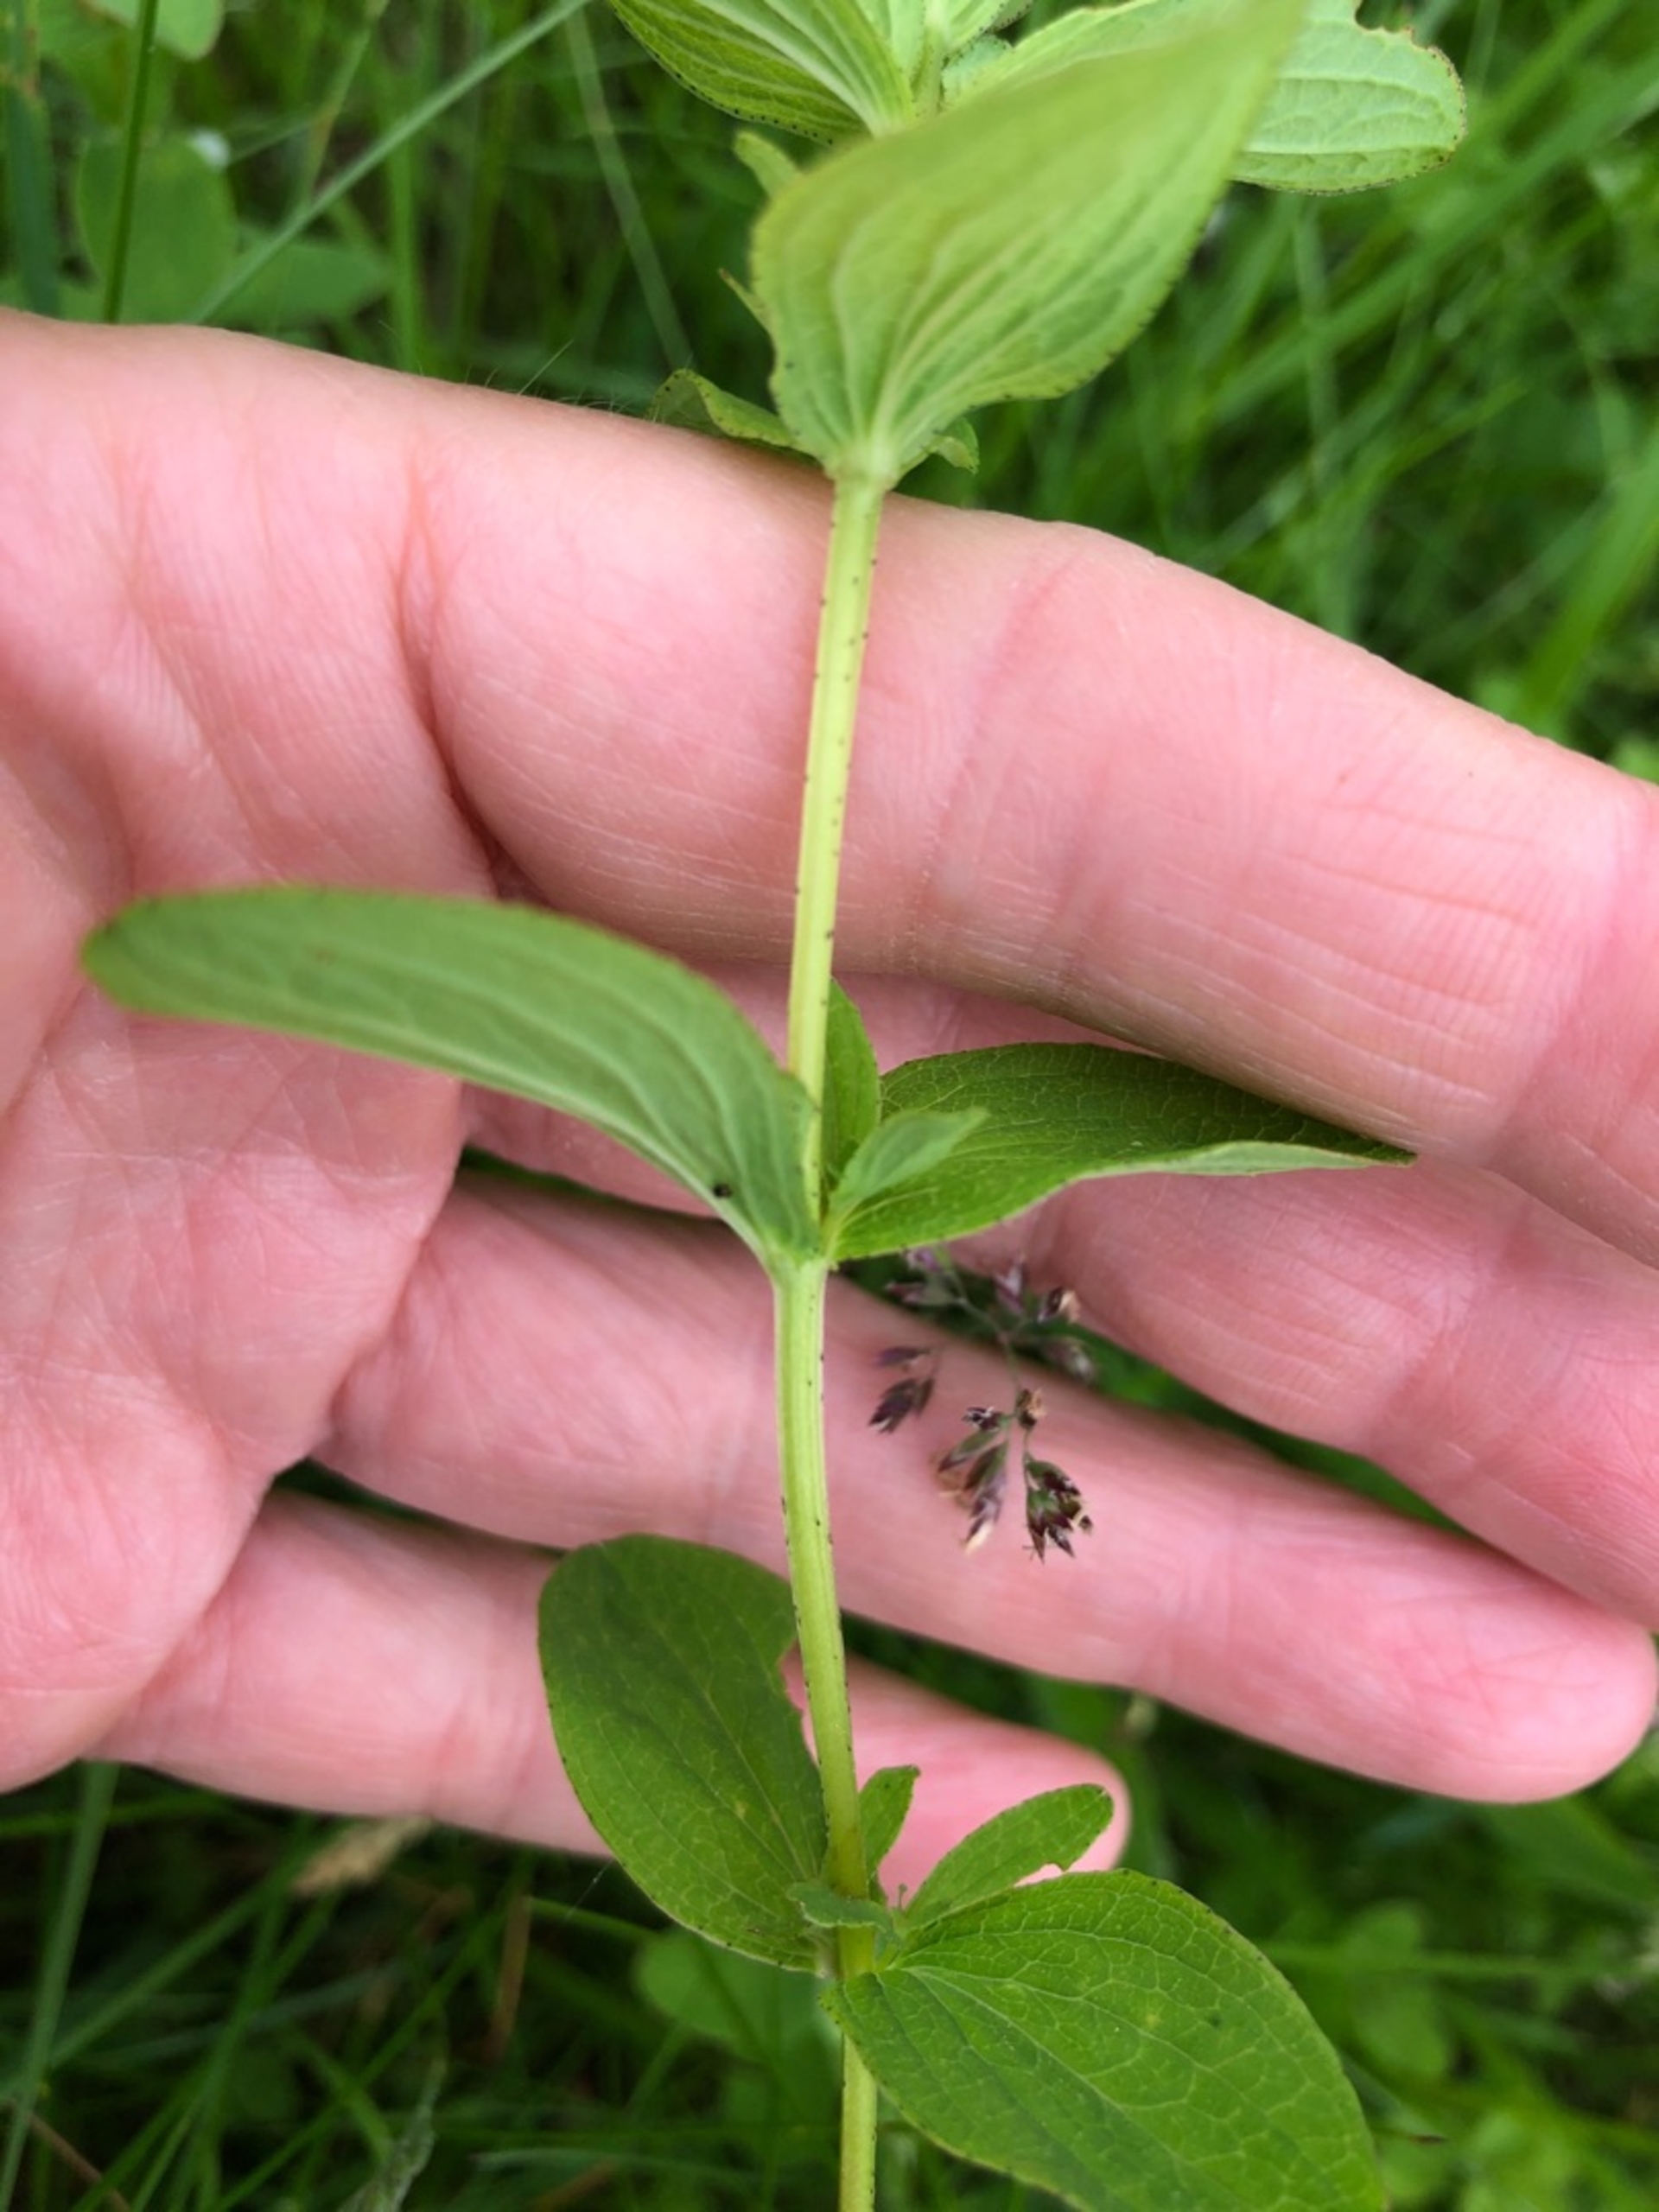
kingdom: Plantae
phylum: Tracheophyta
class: Magnoliopsida
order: Malpighiales
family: Hypericaceae
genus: Hypericum
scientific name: Hypericum maculatum
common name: Kantet perikon
